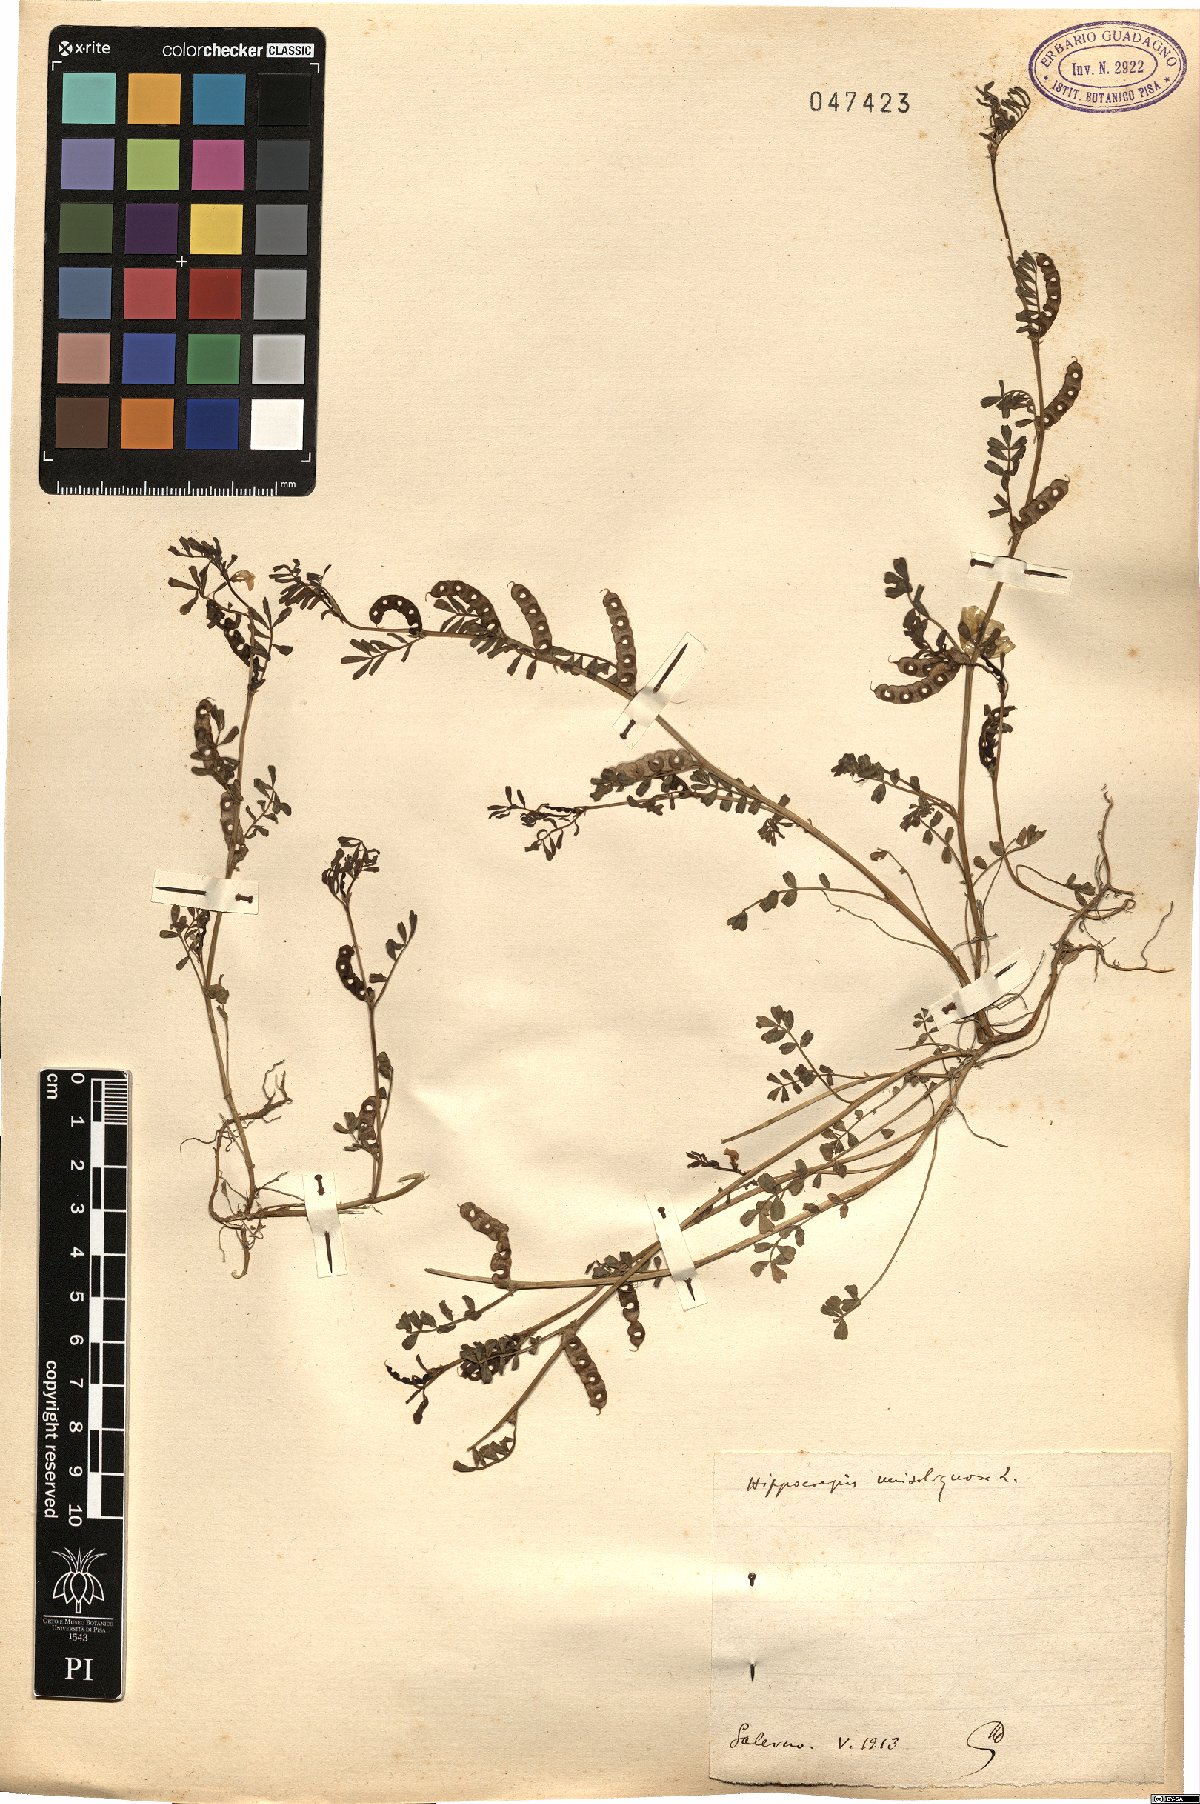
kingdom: Plantae
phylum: Tracheophyta
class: Magnoliopsida
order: Fabales
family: Fabaceae
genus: Hippocrepis
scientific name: Hippocrepis unisiliquosa
